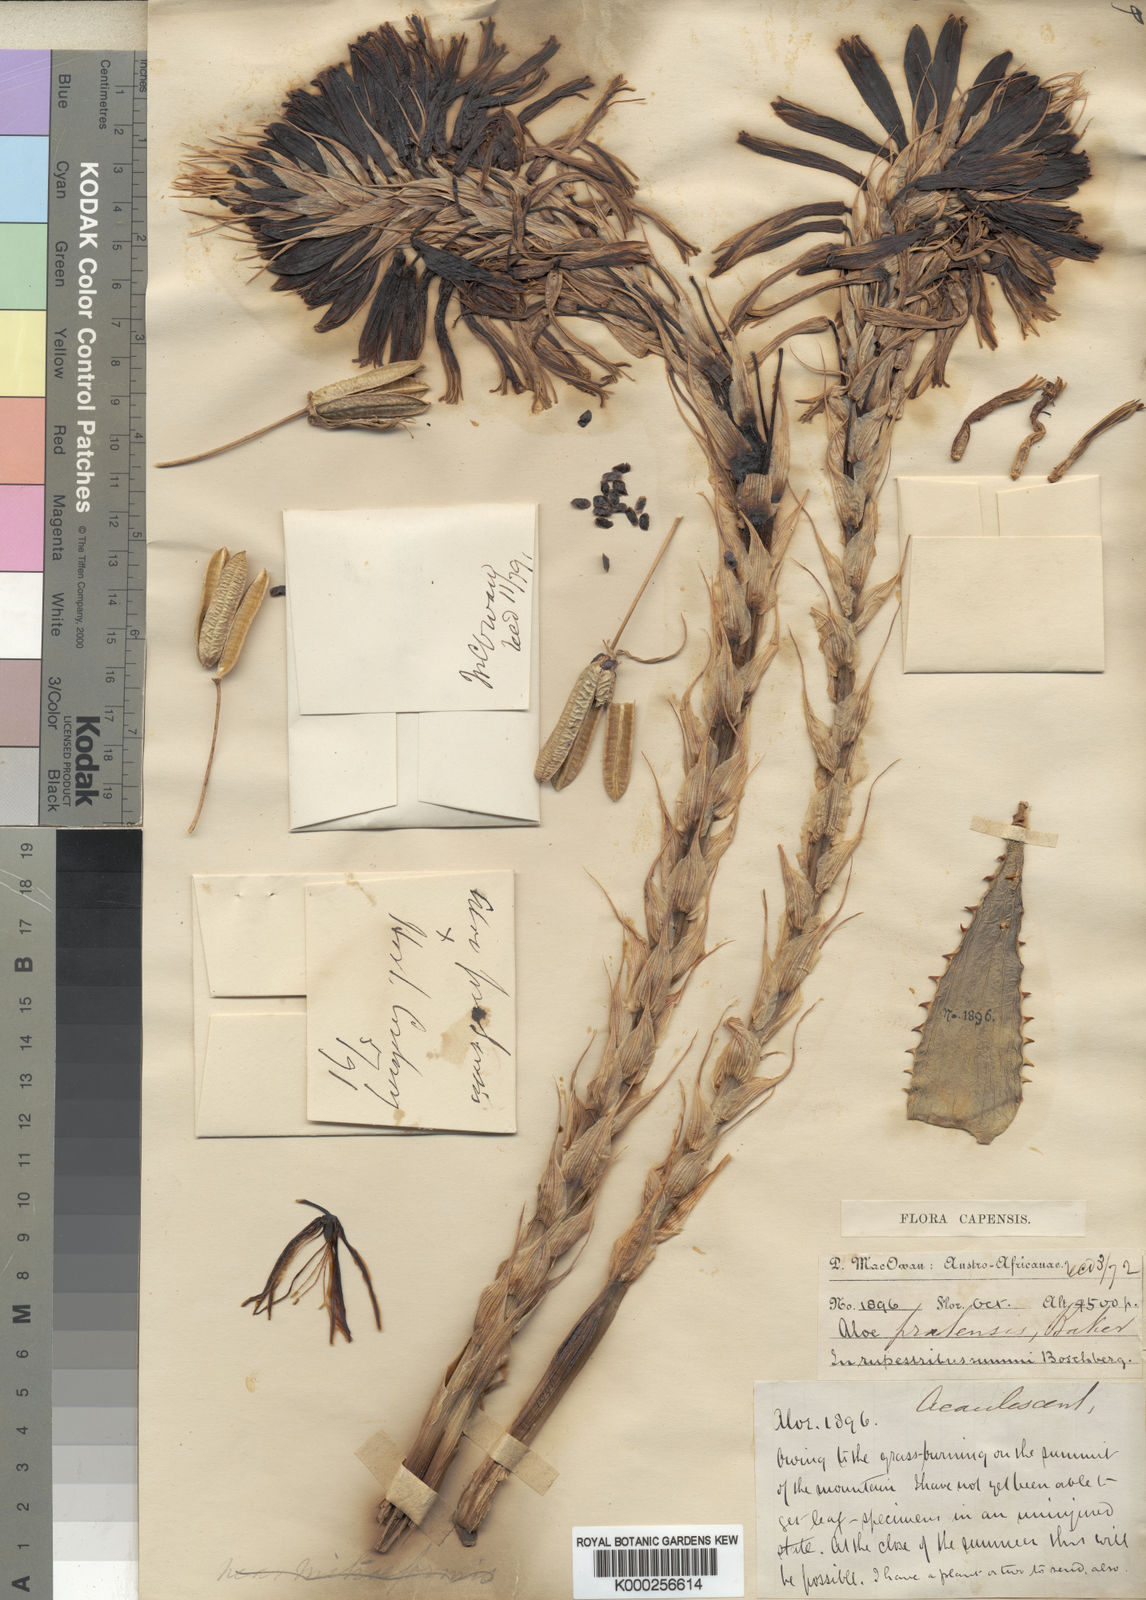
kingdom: Plantae
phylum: Tracheophyta
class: Liliopsida
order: Asparagales
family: Asphodelaceae
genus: Aloe
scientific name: Aloe pratensis
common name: Meadow aloe
